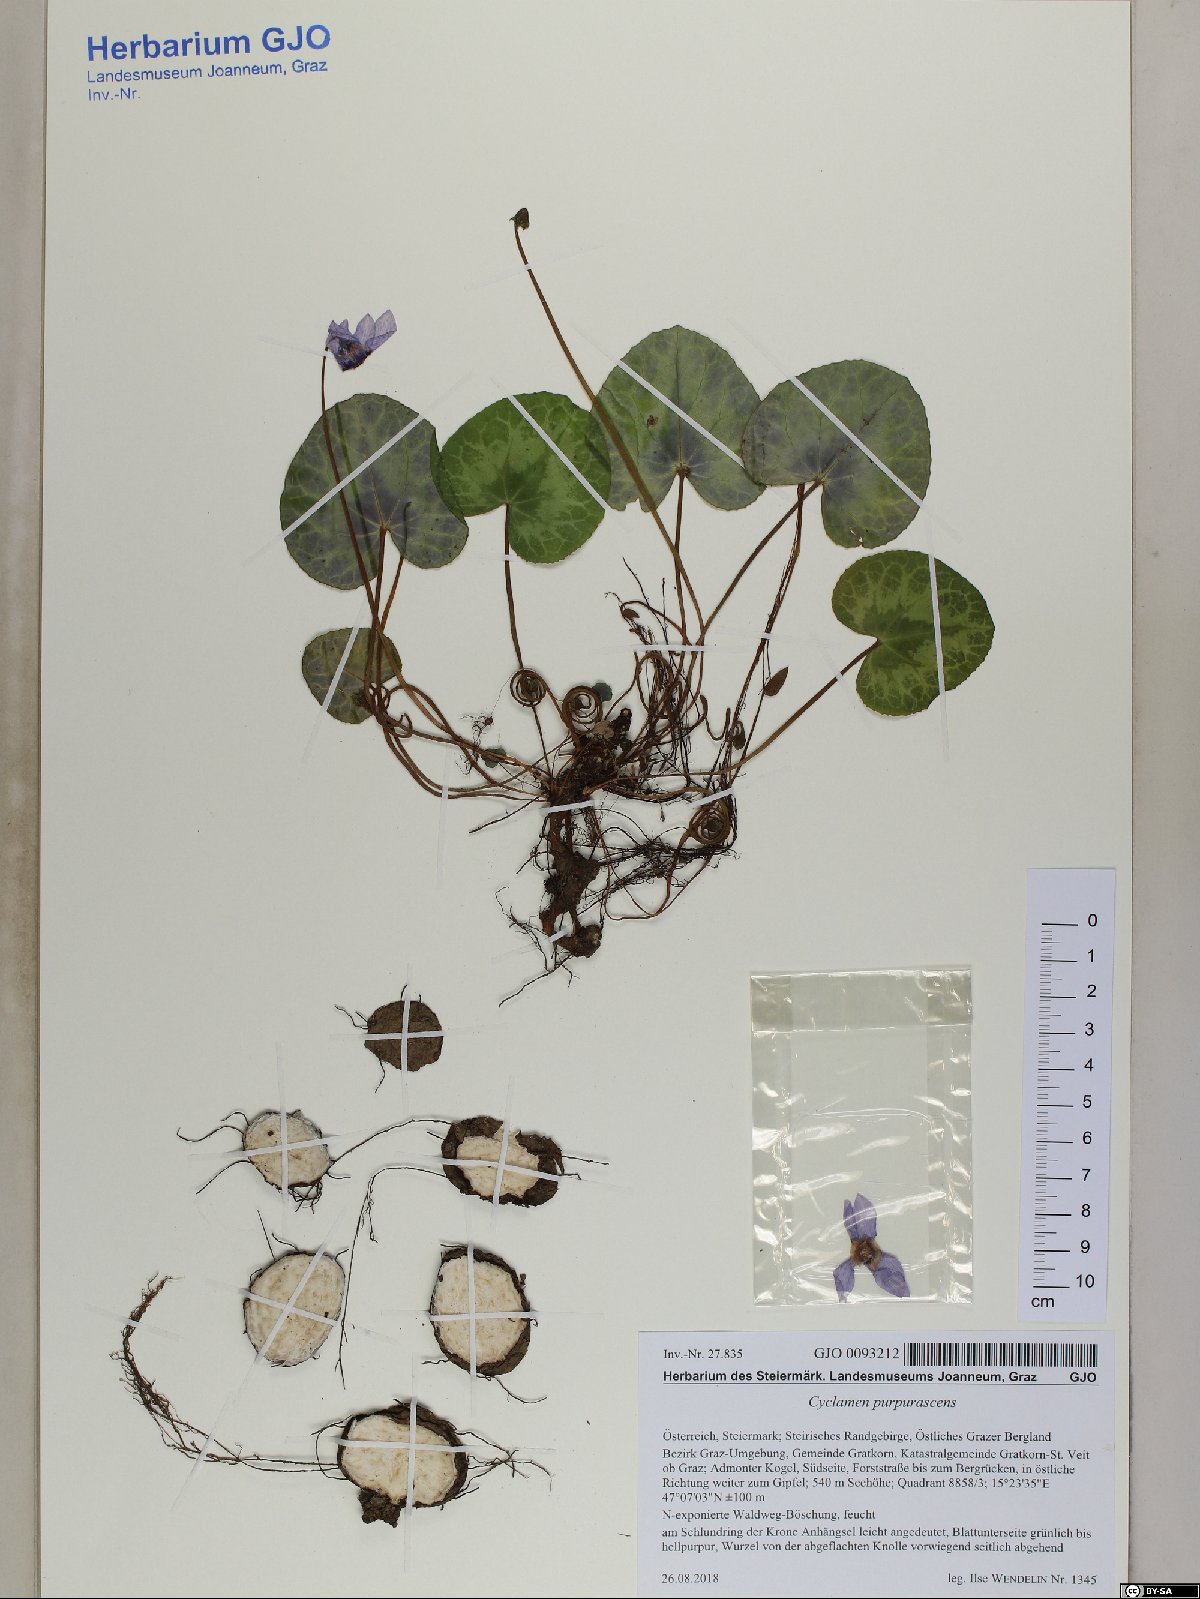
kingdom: Plantae
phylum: Tracheophyta
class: Magnoliopsida
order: Ericales
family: Primulaceae
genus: Cyclamen
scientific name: Cyclamen purpurascens
